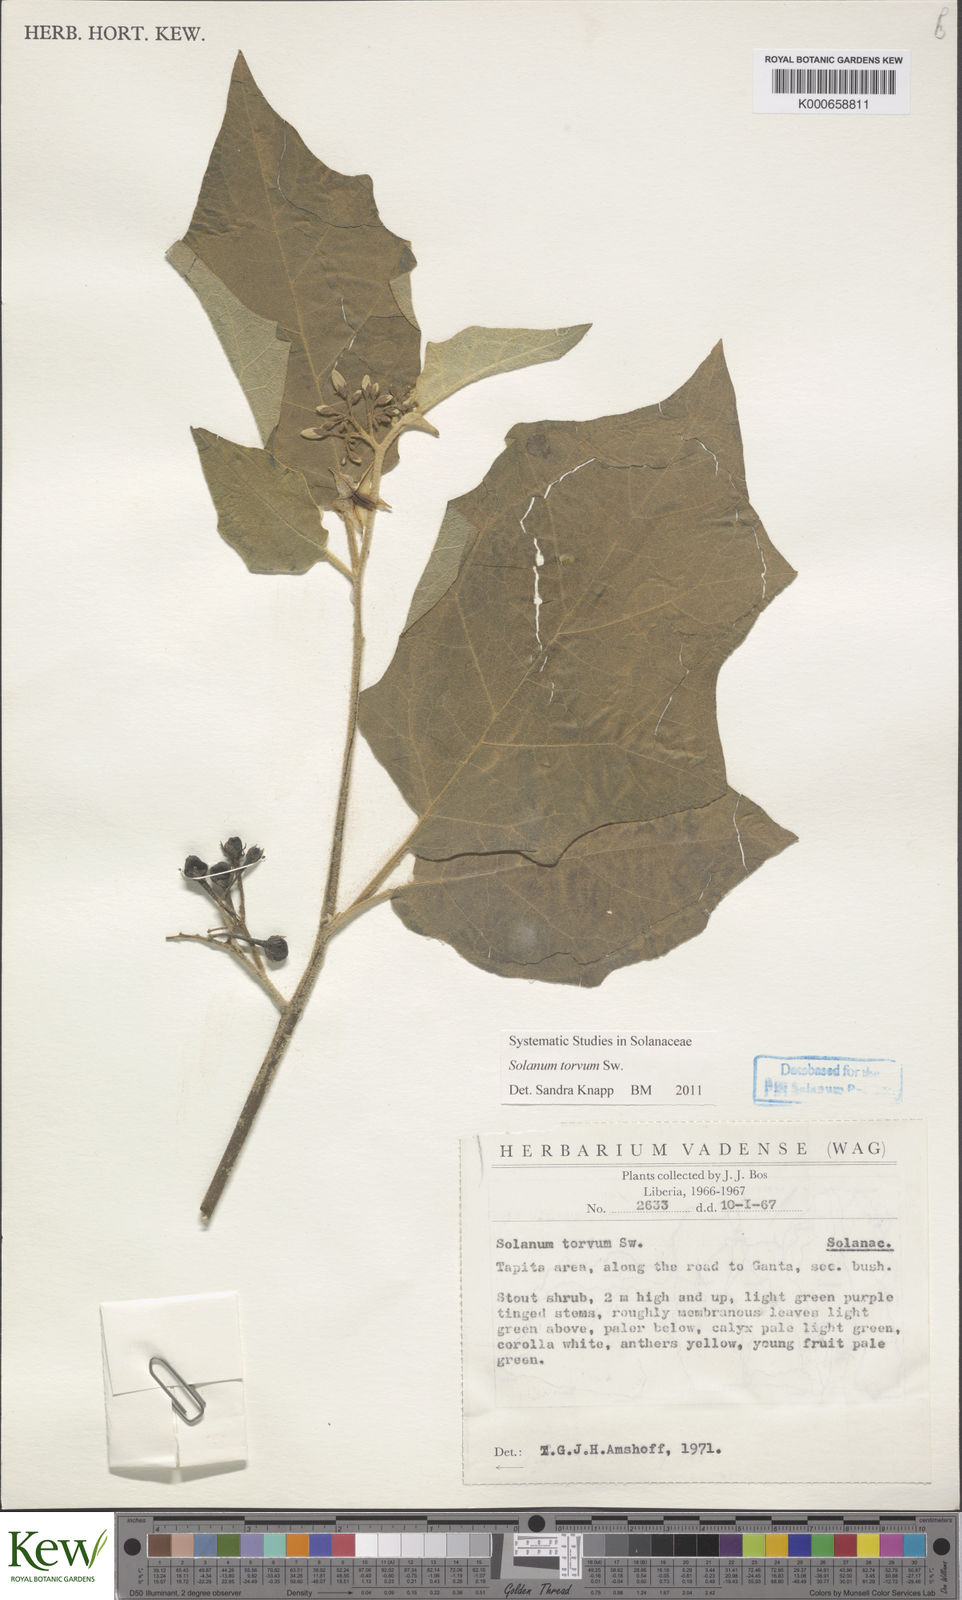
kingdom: Plantae
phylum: Tracheophyta
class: Magnoliopsida
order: Solanales
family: Solanaceae
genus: Solanum
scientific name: Solanum torvum
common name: Turkey berry
